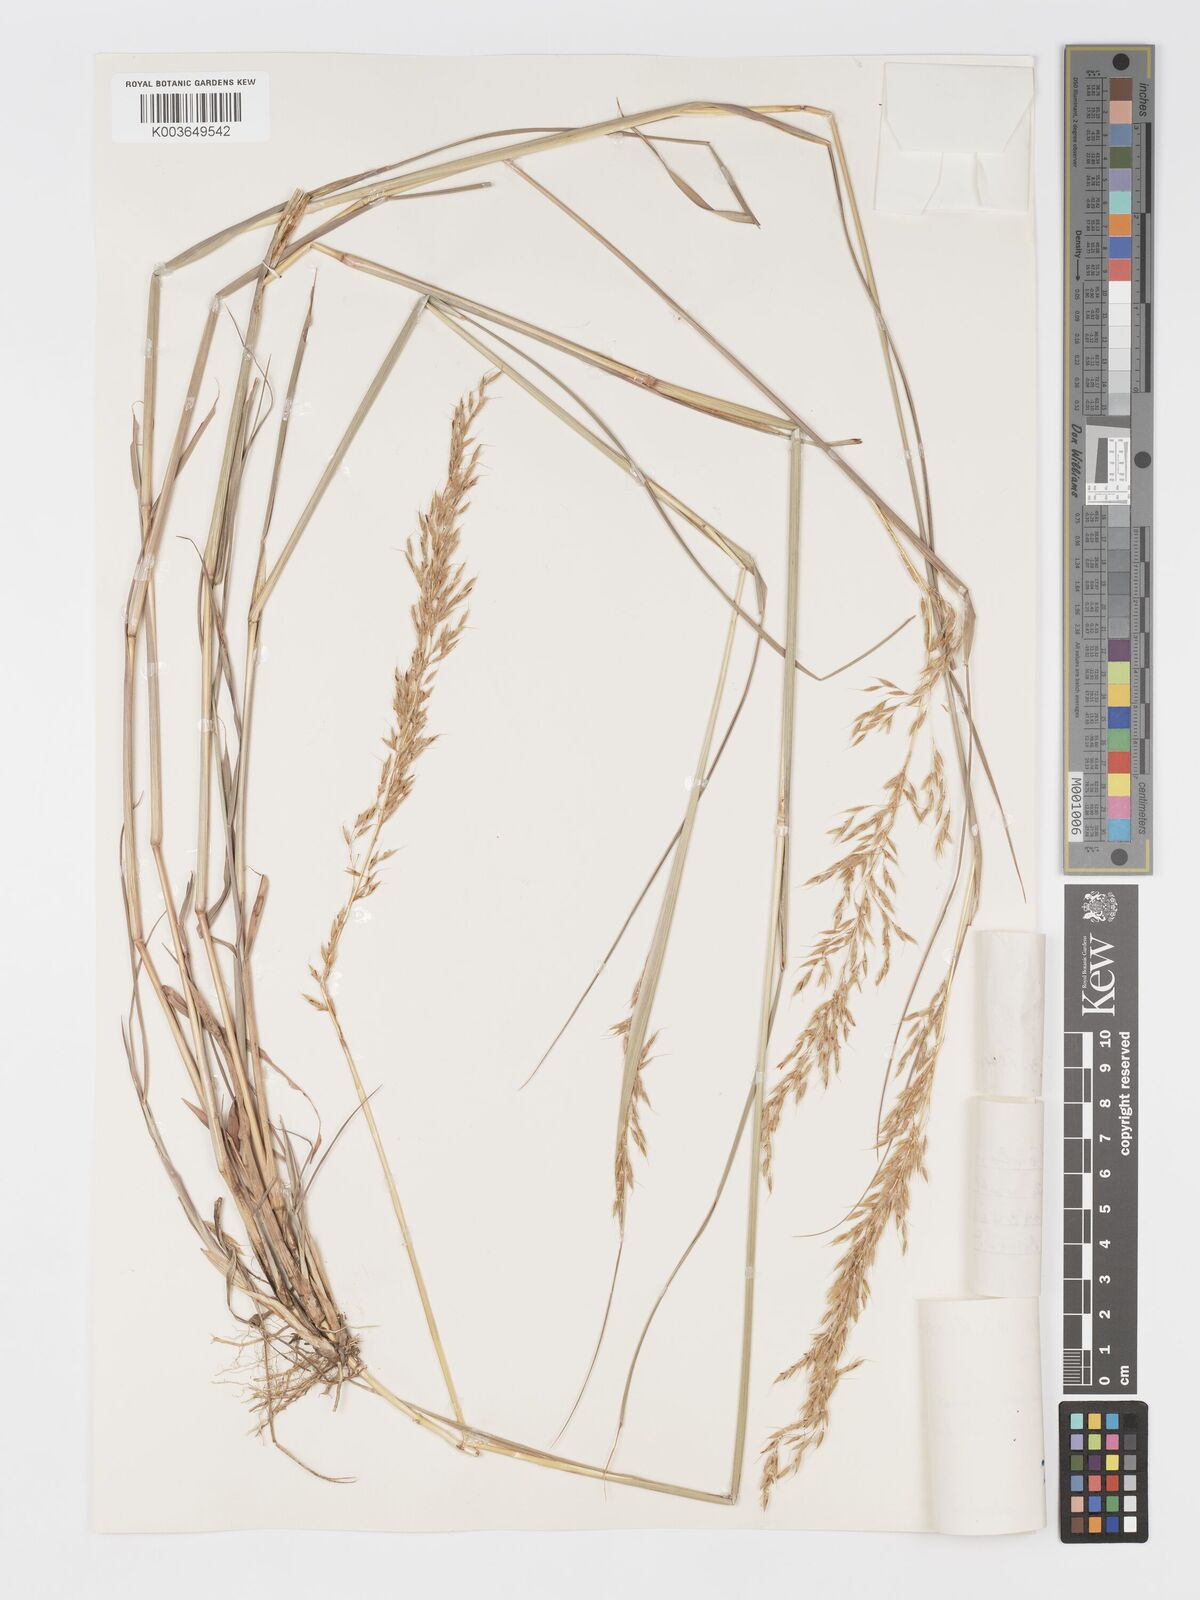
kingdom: Plantae
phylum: Tracheophyta
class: Liliopsida
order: Poales
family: Poaceae
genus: Sorghastrum
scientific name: Sorghastrum nudipes
